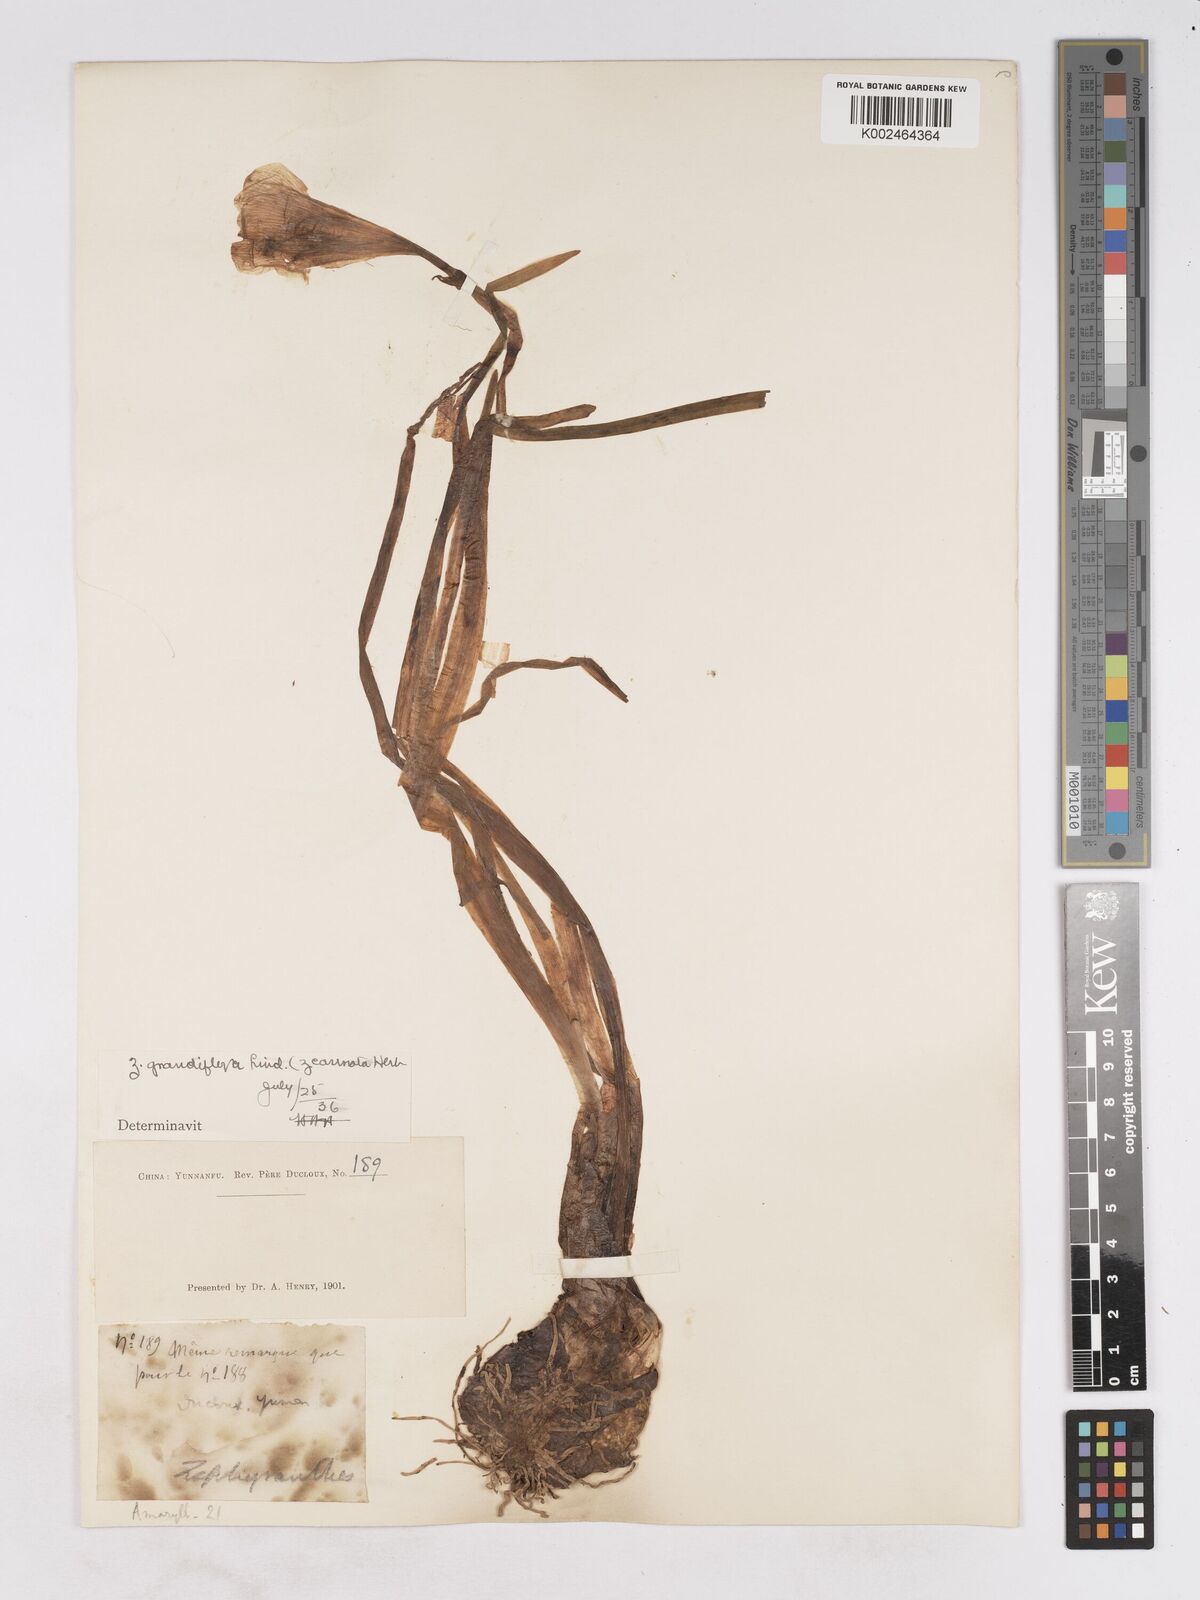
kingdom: Plantae
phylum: Tracheophyta
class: Liliopsida
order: Asparagales
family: Amaryllidaceae
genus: Zephyranthes
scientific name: Zephyranthes minuta
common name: Pink rain lily
